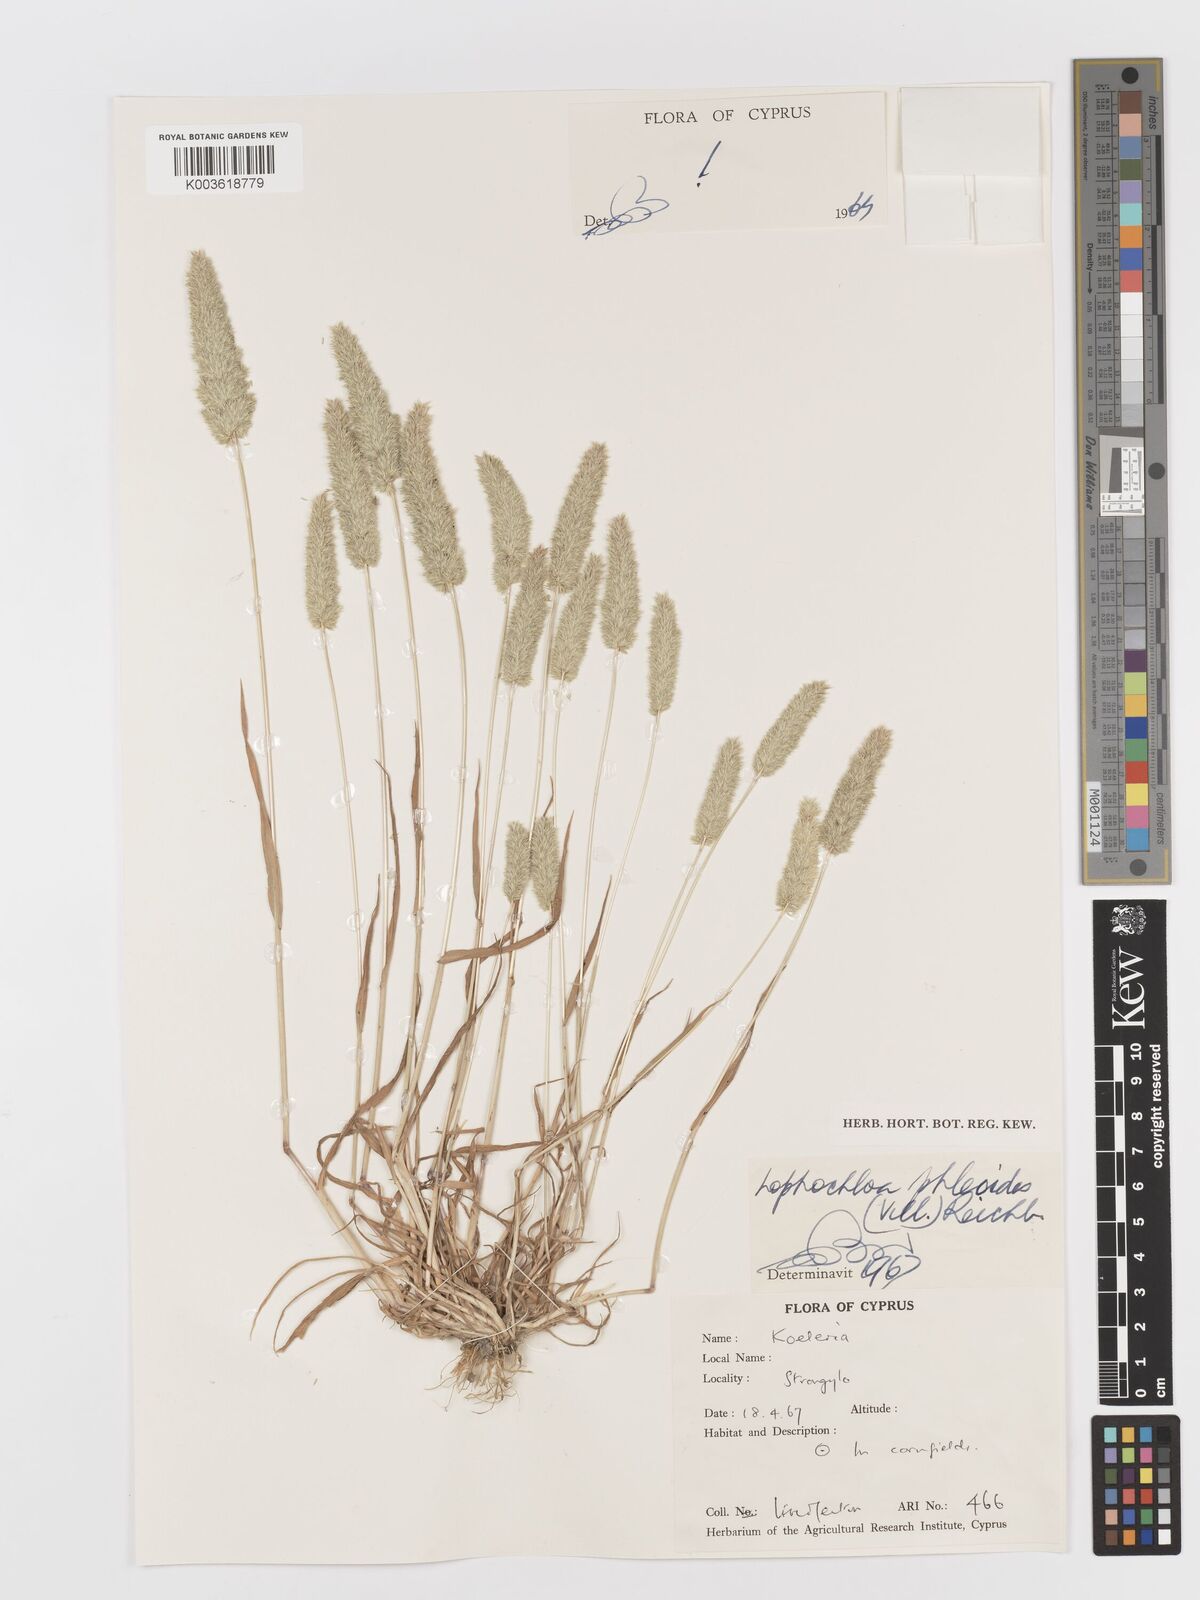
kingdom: Plantae
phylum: Tracheophyta
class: Liliopsida
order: Poales
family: Poaceae
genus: Rostraria
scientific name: Rostraria cristata
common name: Mediterranean hair-grass
